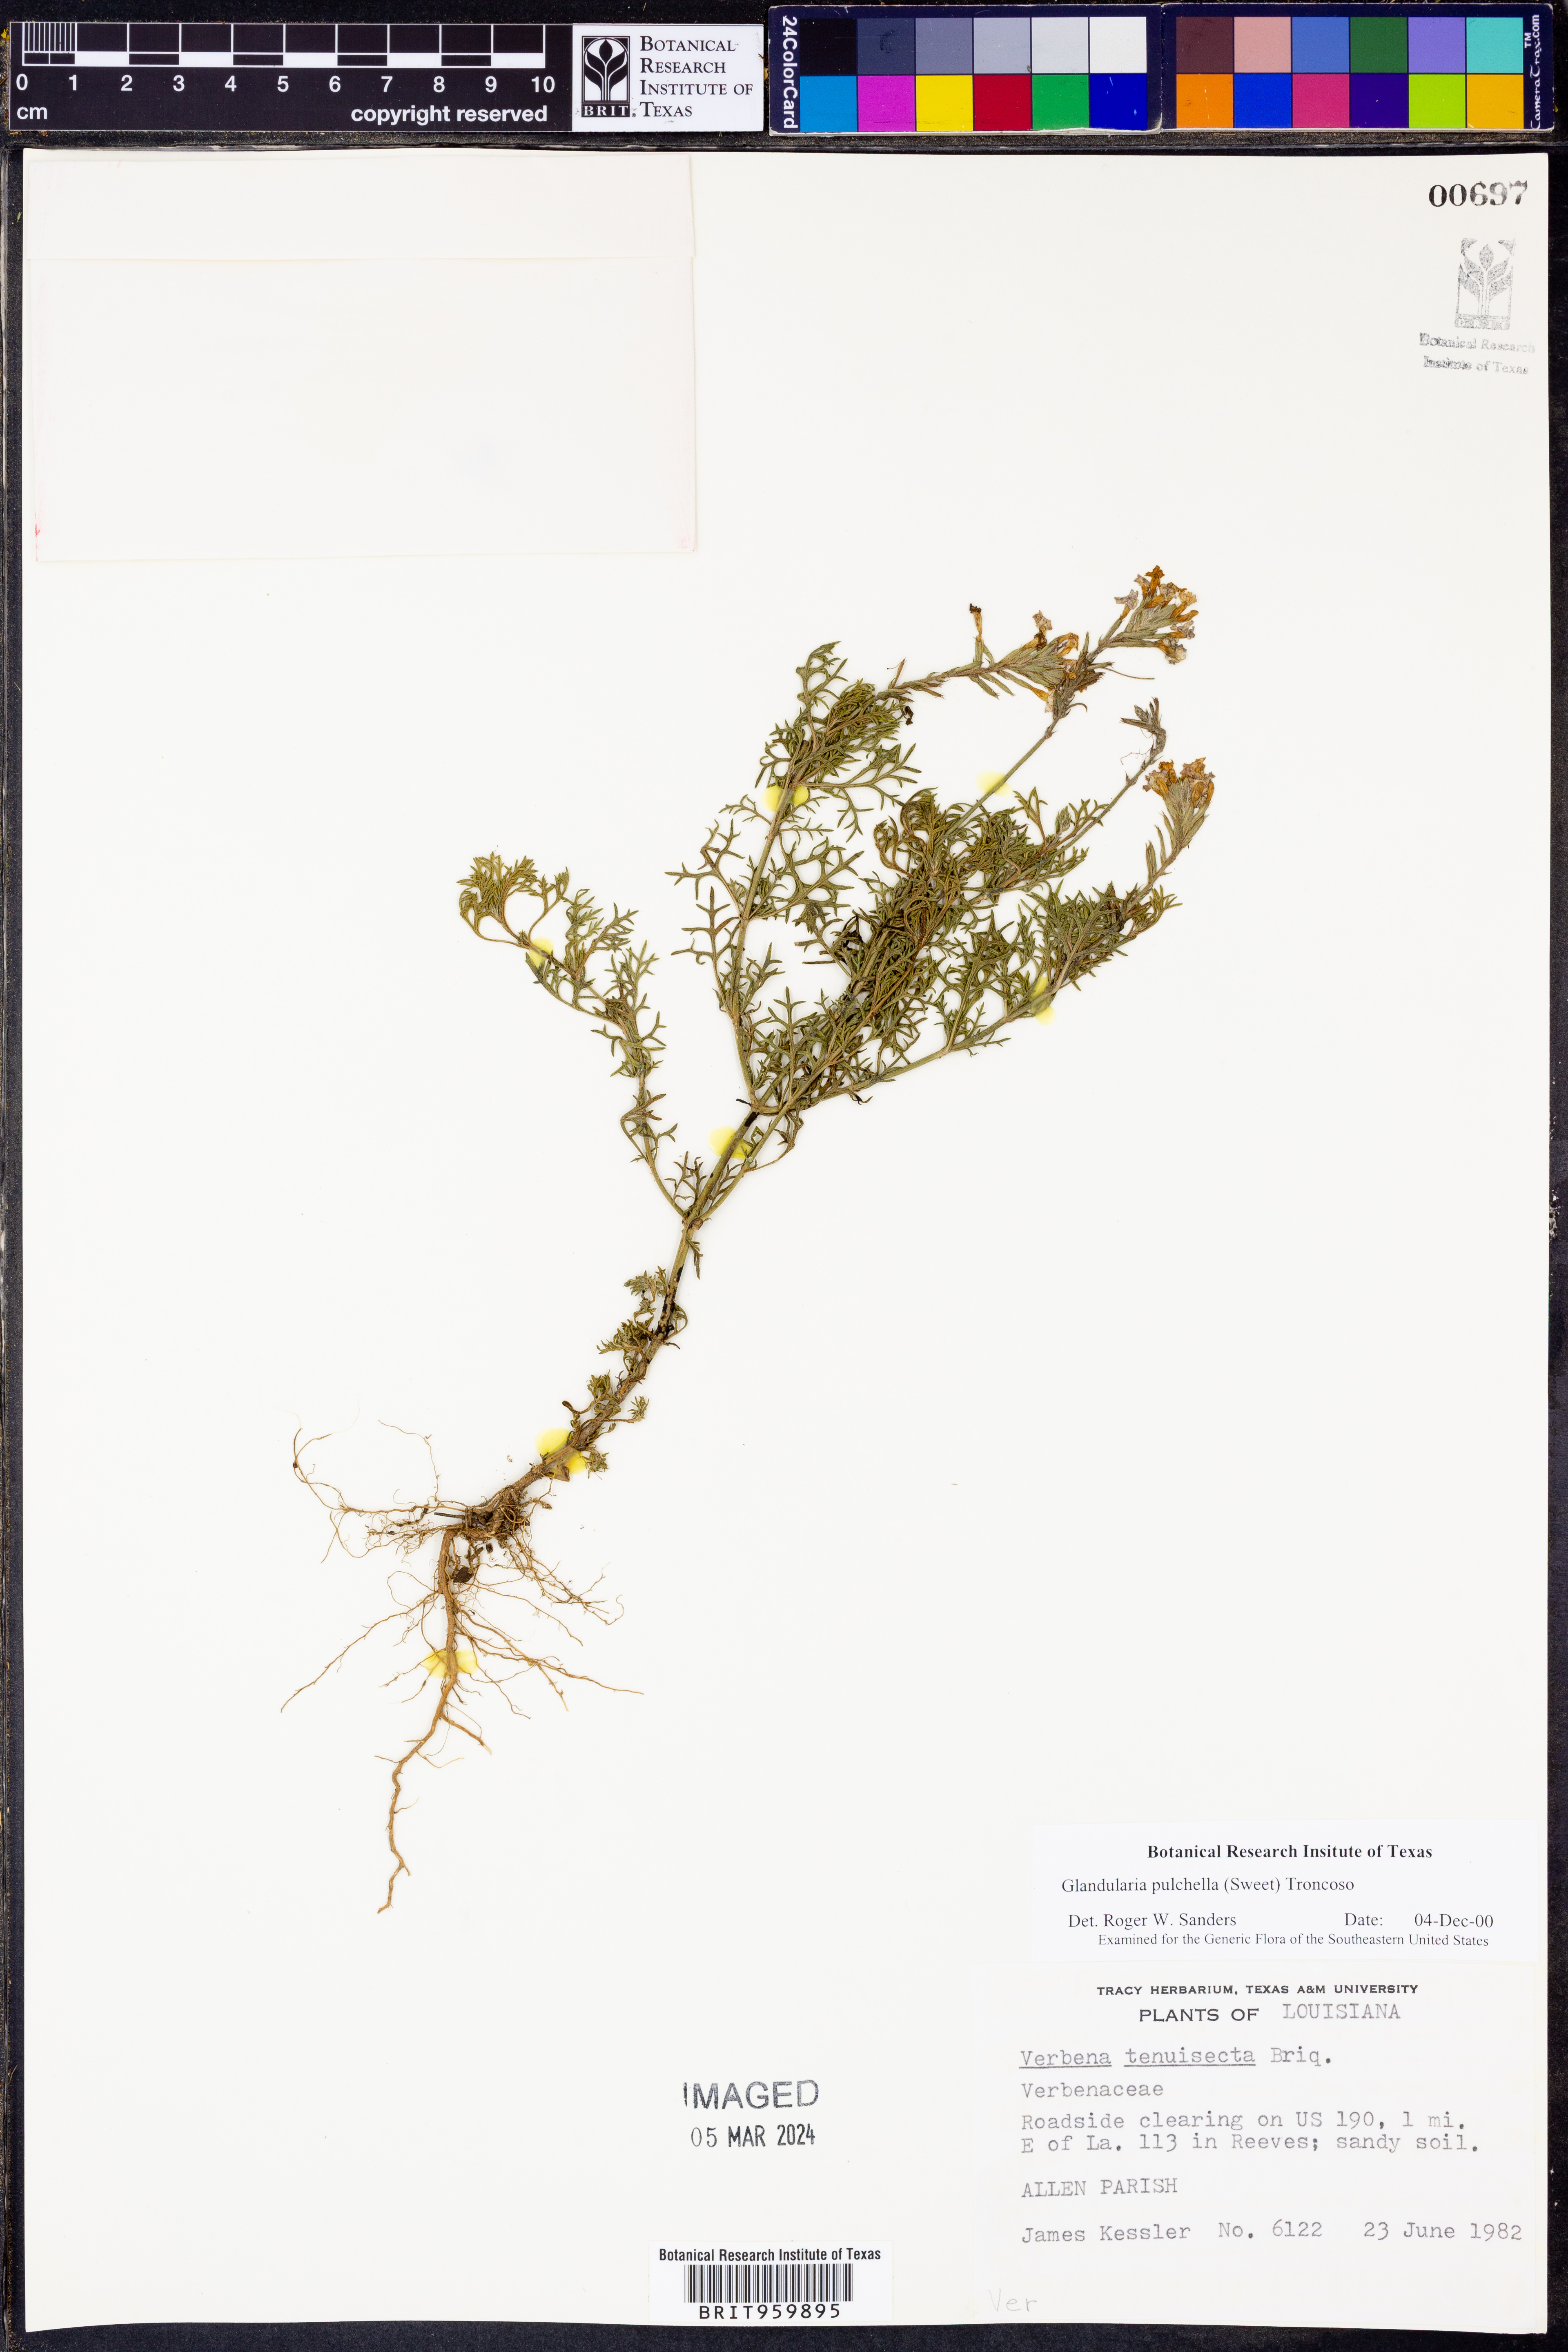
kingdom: Plantae
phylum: Tracheophyta
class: Magnoliopsida
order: Lamiales
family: Verbenaceae
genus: Verbena
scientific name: Verbena tenera
